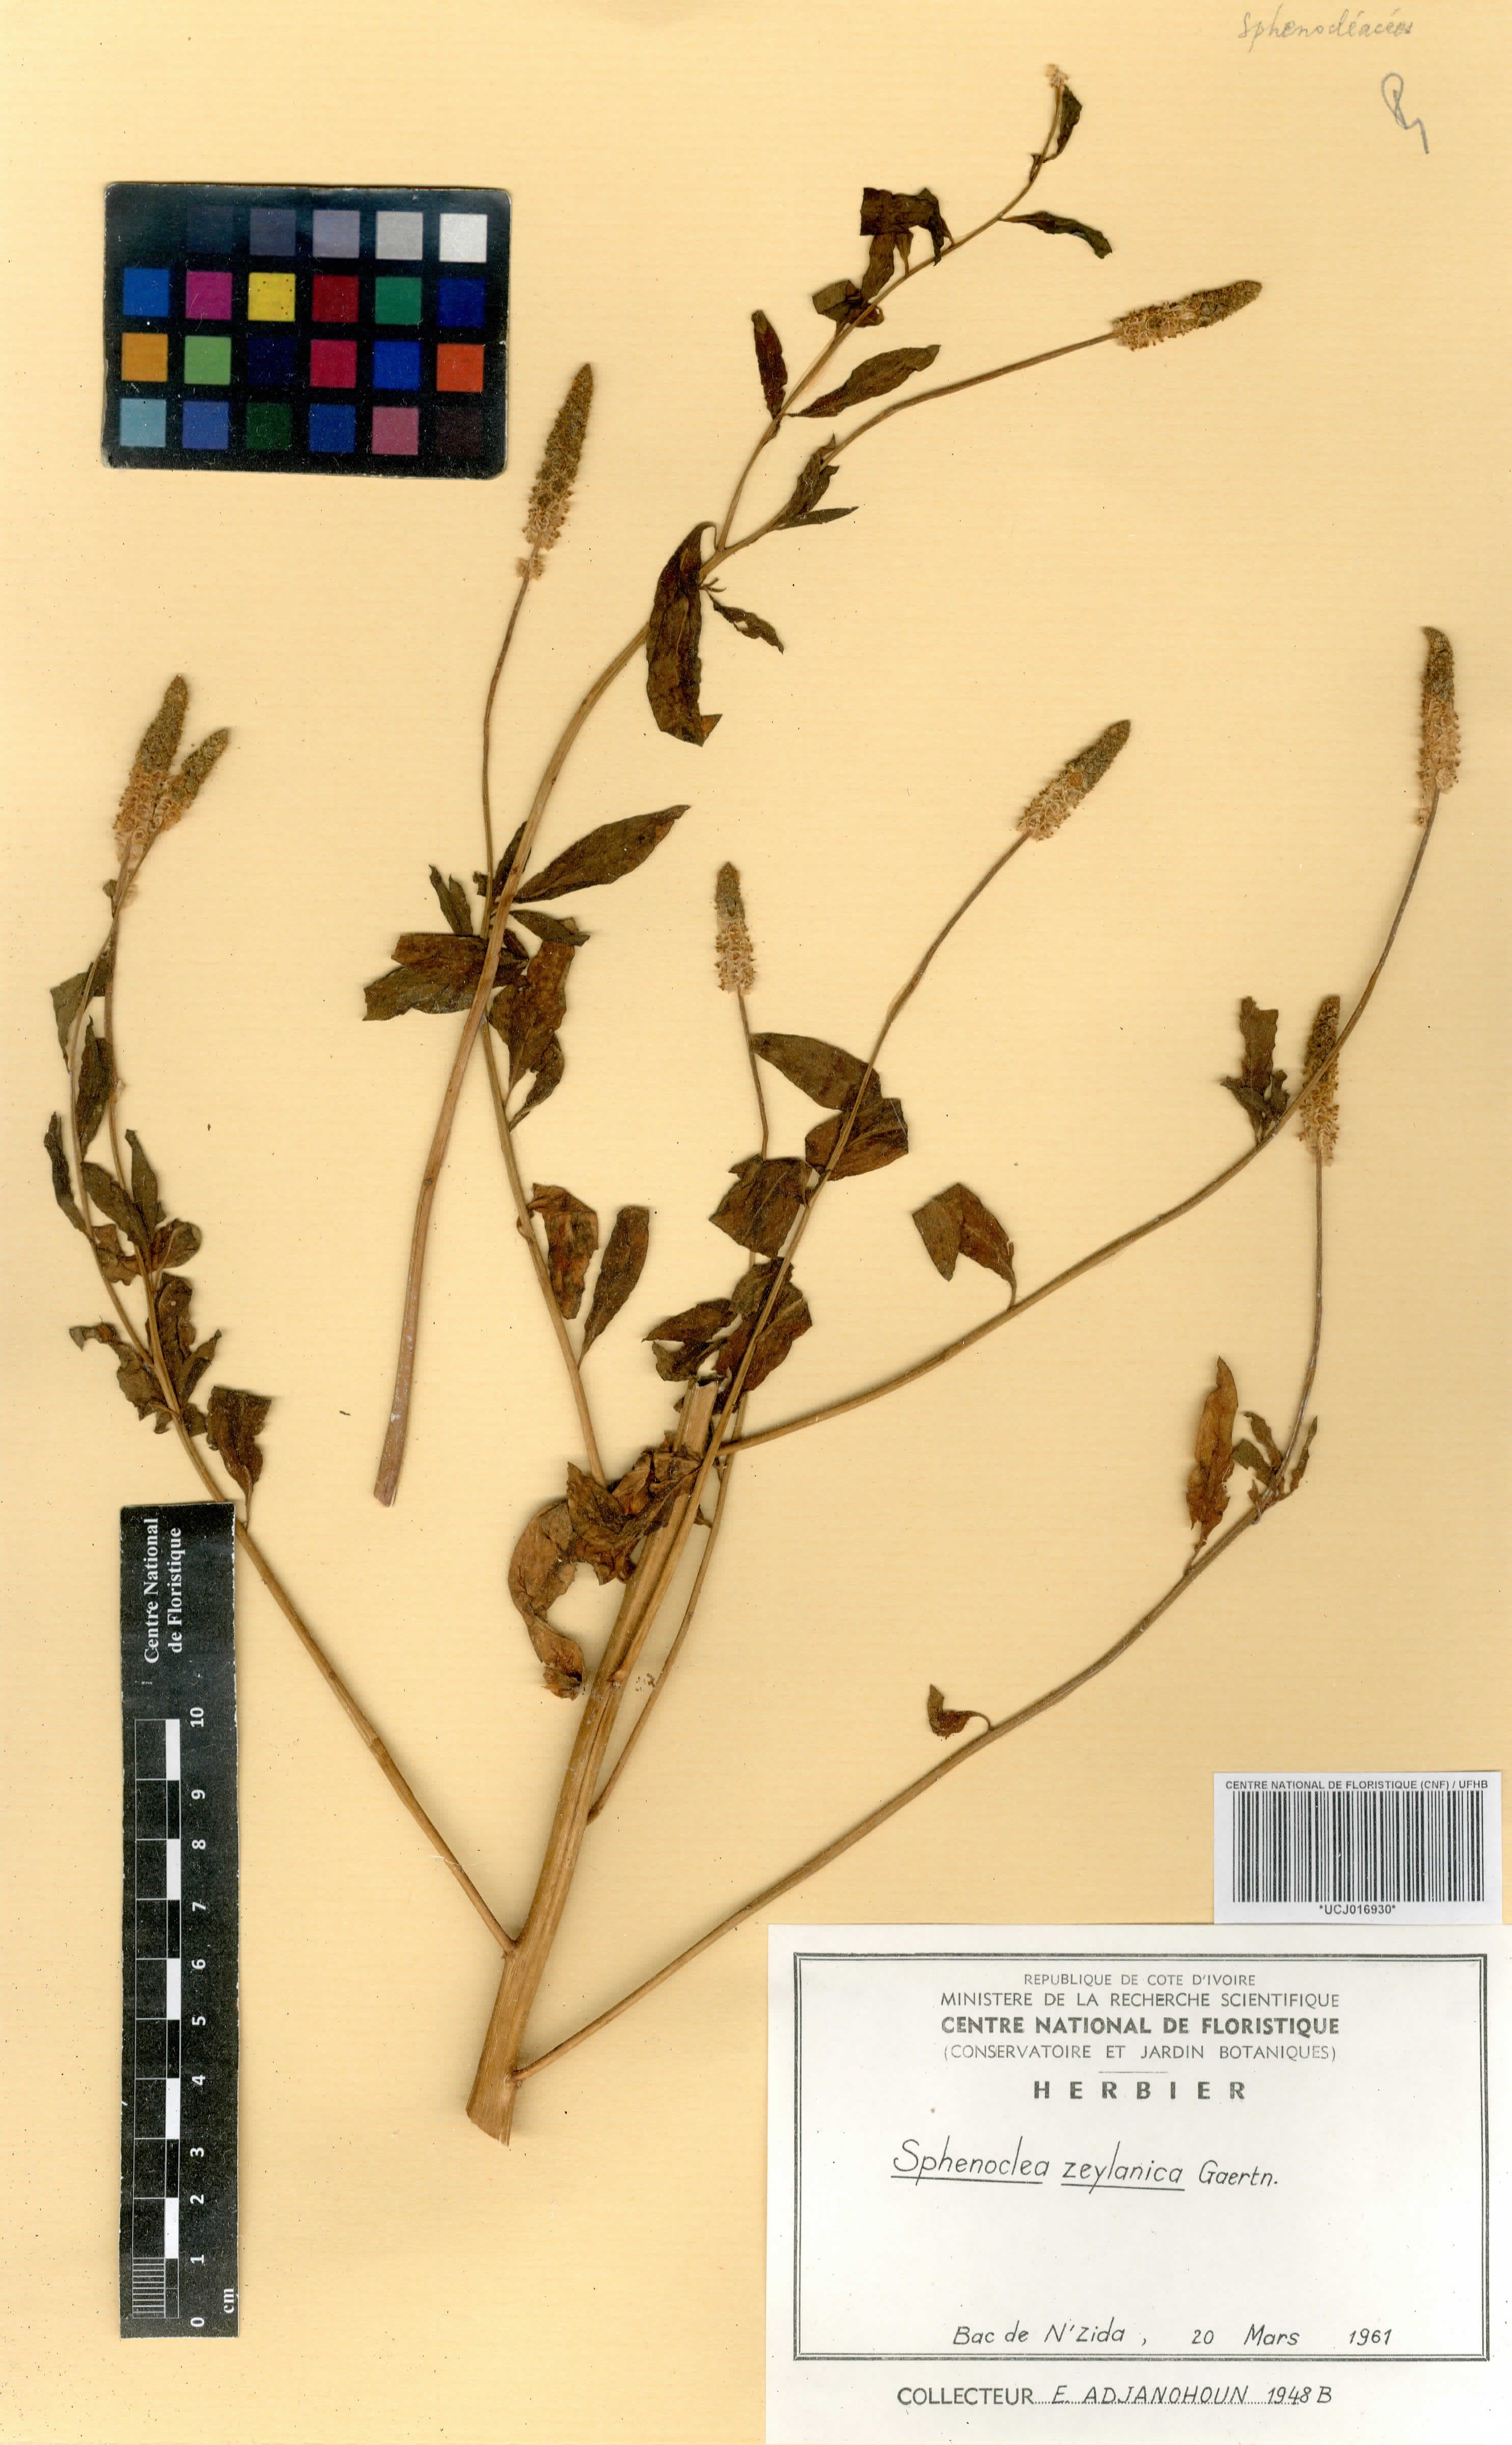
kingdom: Plantae
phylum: Tracheophyta
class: Magnoliopsida
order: Solanales
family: Sphenocleaceae
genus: Sphenoclea
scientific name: Sphenoclea zeylanica
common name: Chickenspike
